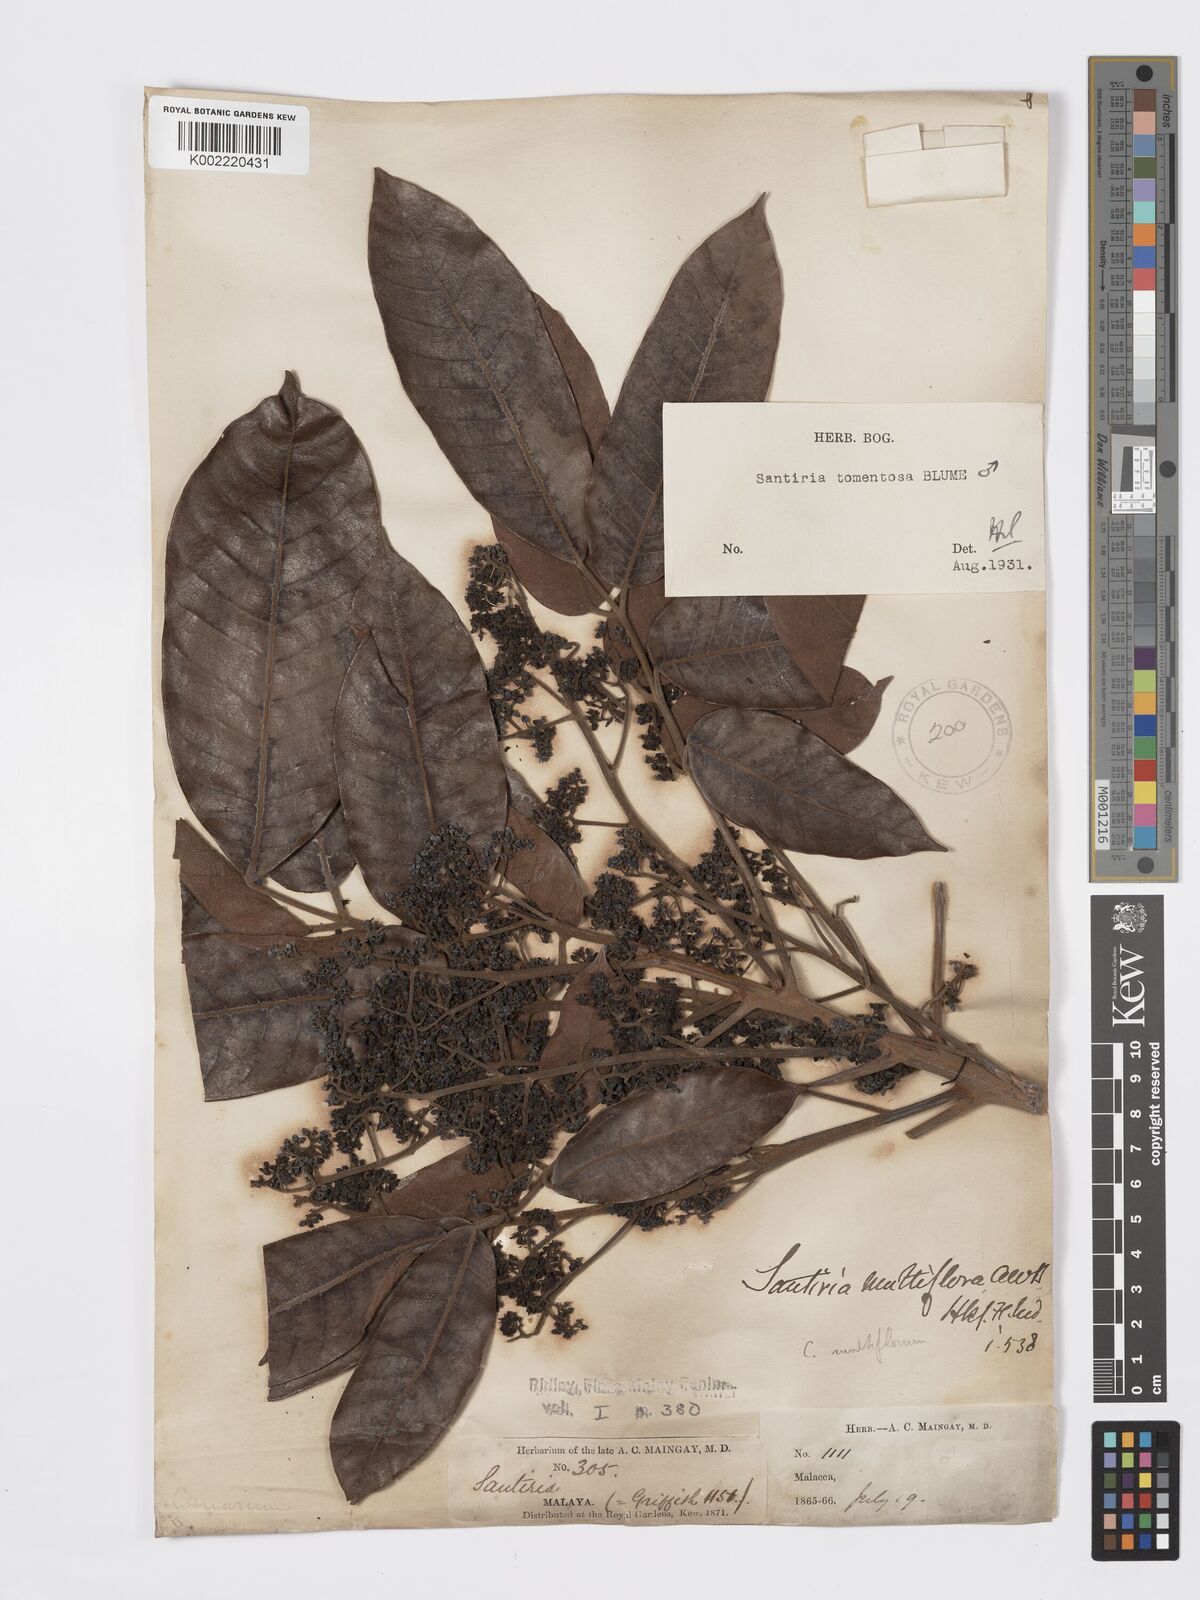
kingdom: Plantae
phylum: Tracheophyta
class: Magnoliopsida
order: Sapindales
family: Burseraceae
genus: Santiria
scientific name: Santiria tomentosa
